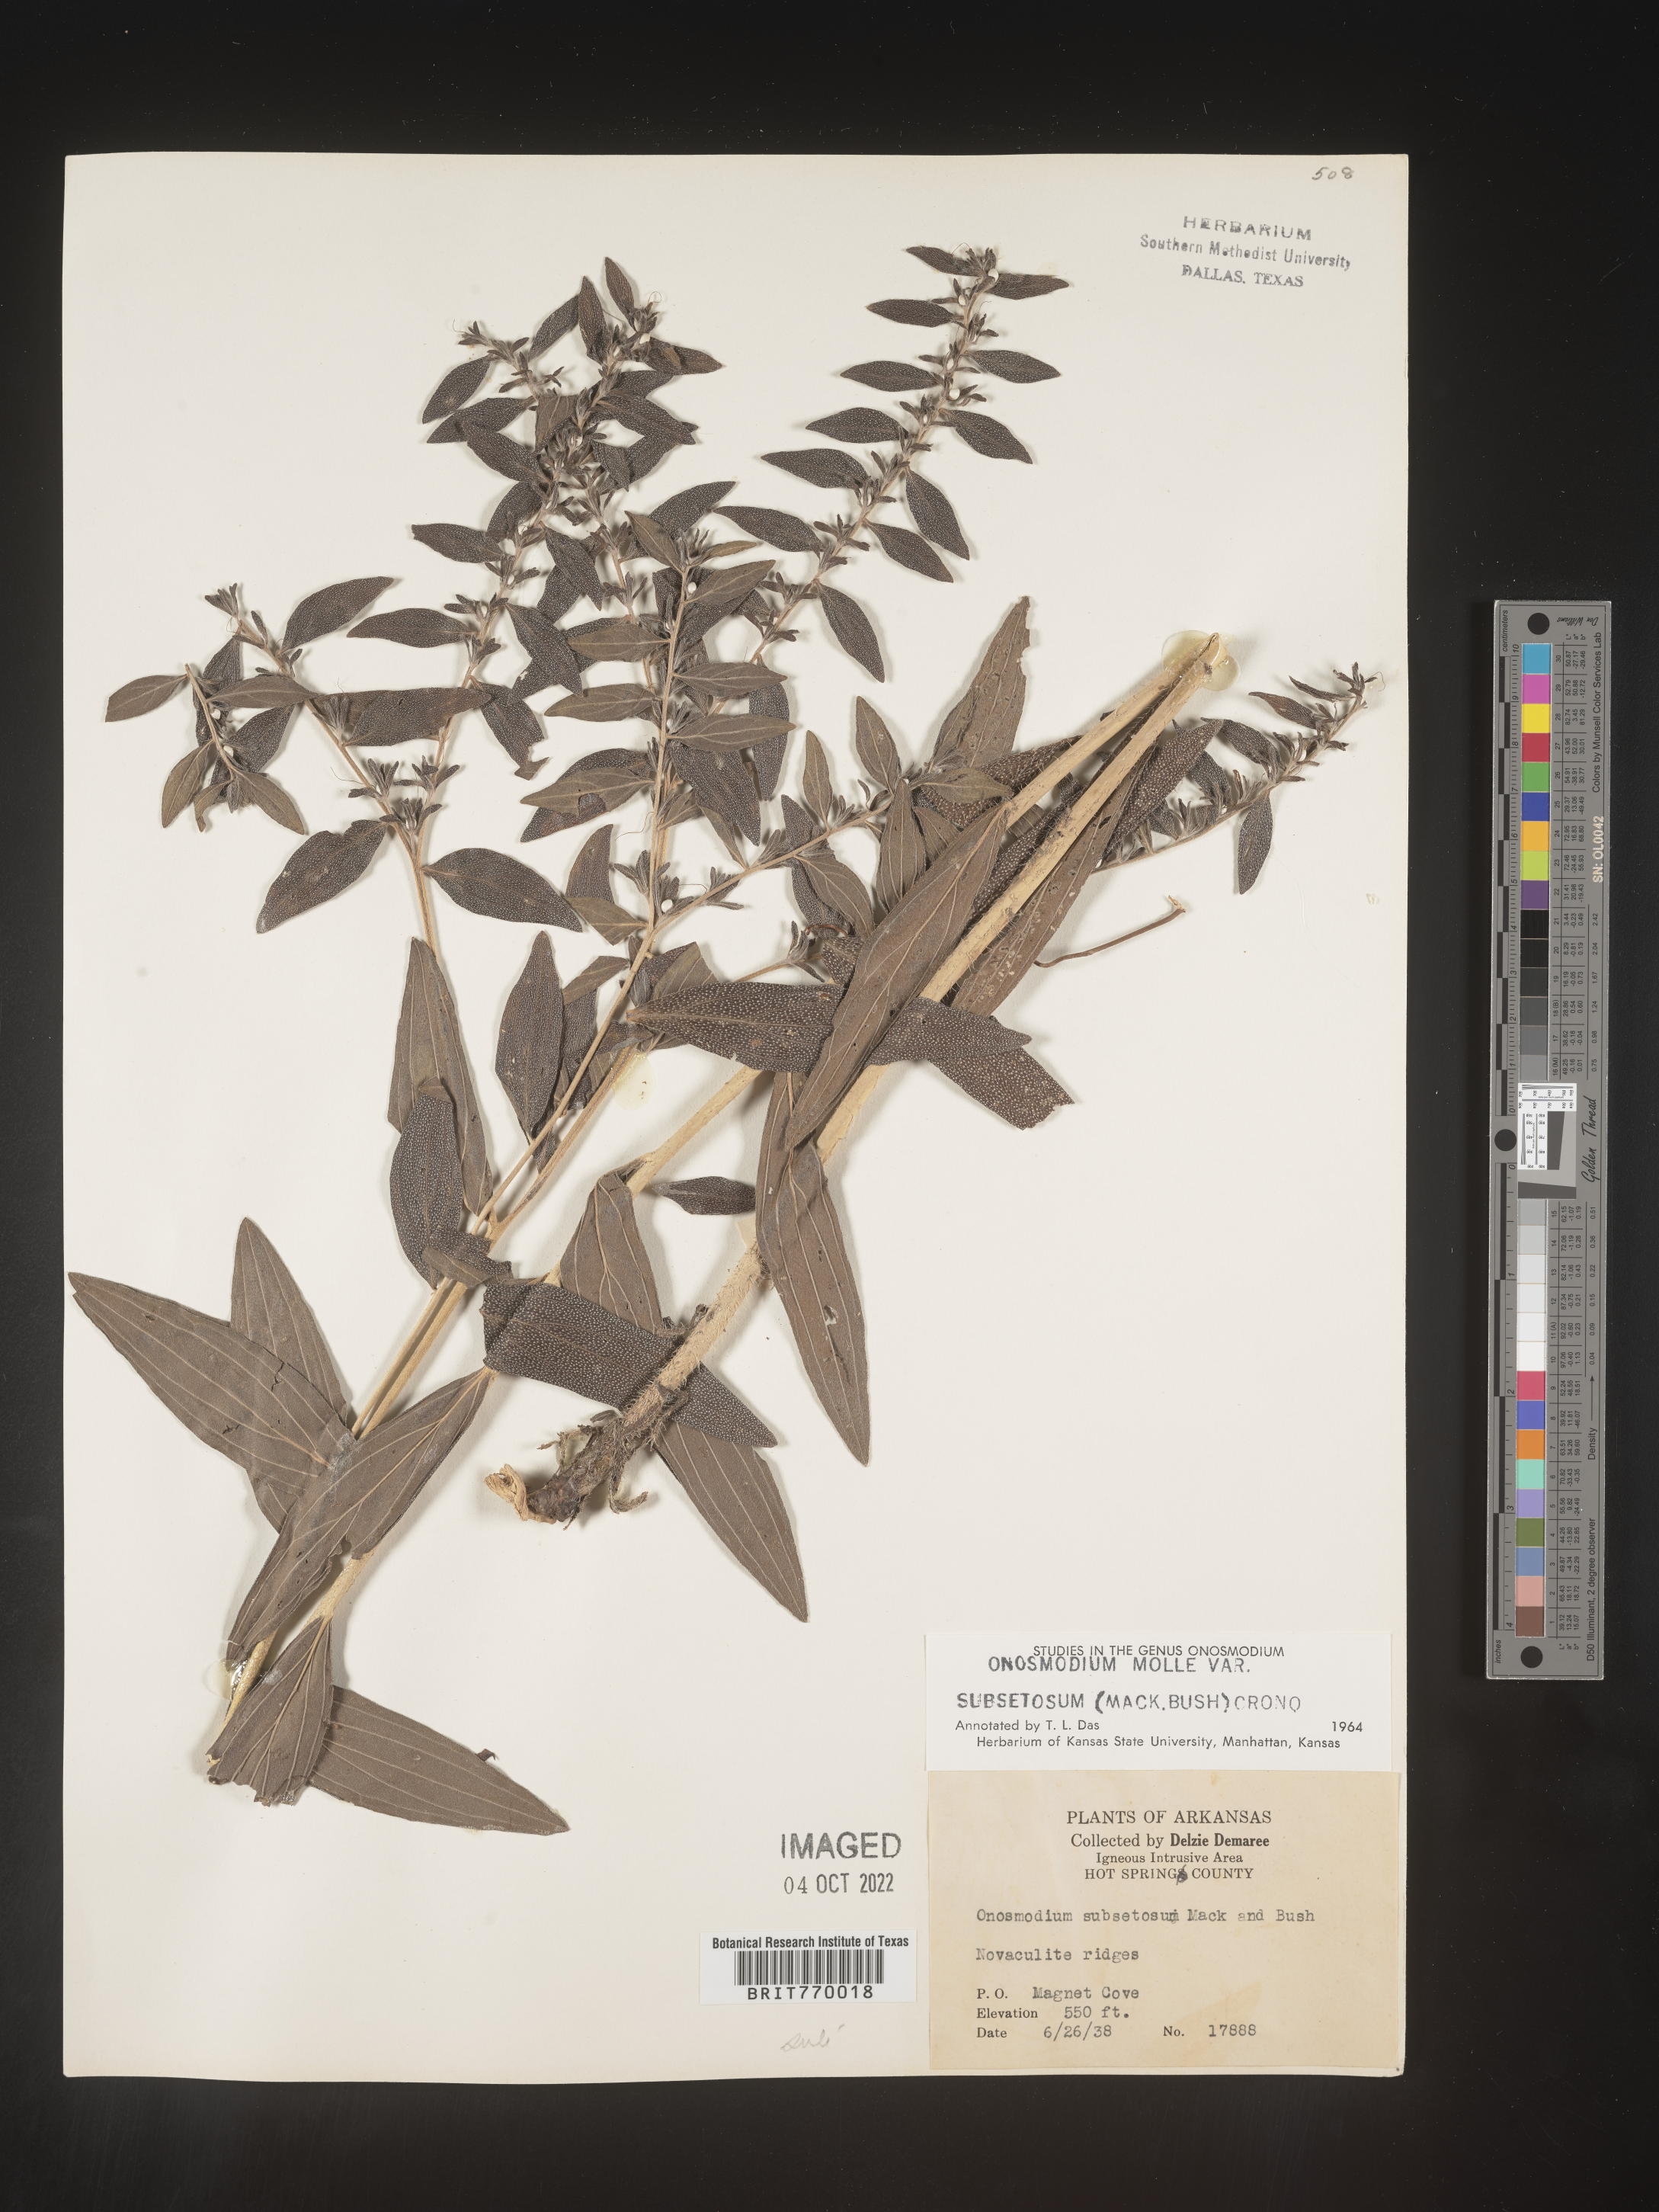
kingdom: Plantae
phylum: Tracheophyta
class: Magnoliopsida
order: Boraginales
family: Boraginaceae
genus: Lithospermum
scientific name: Lithospermum subsetosum
